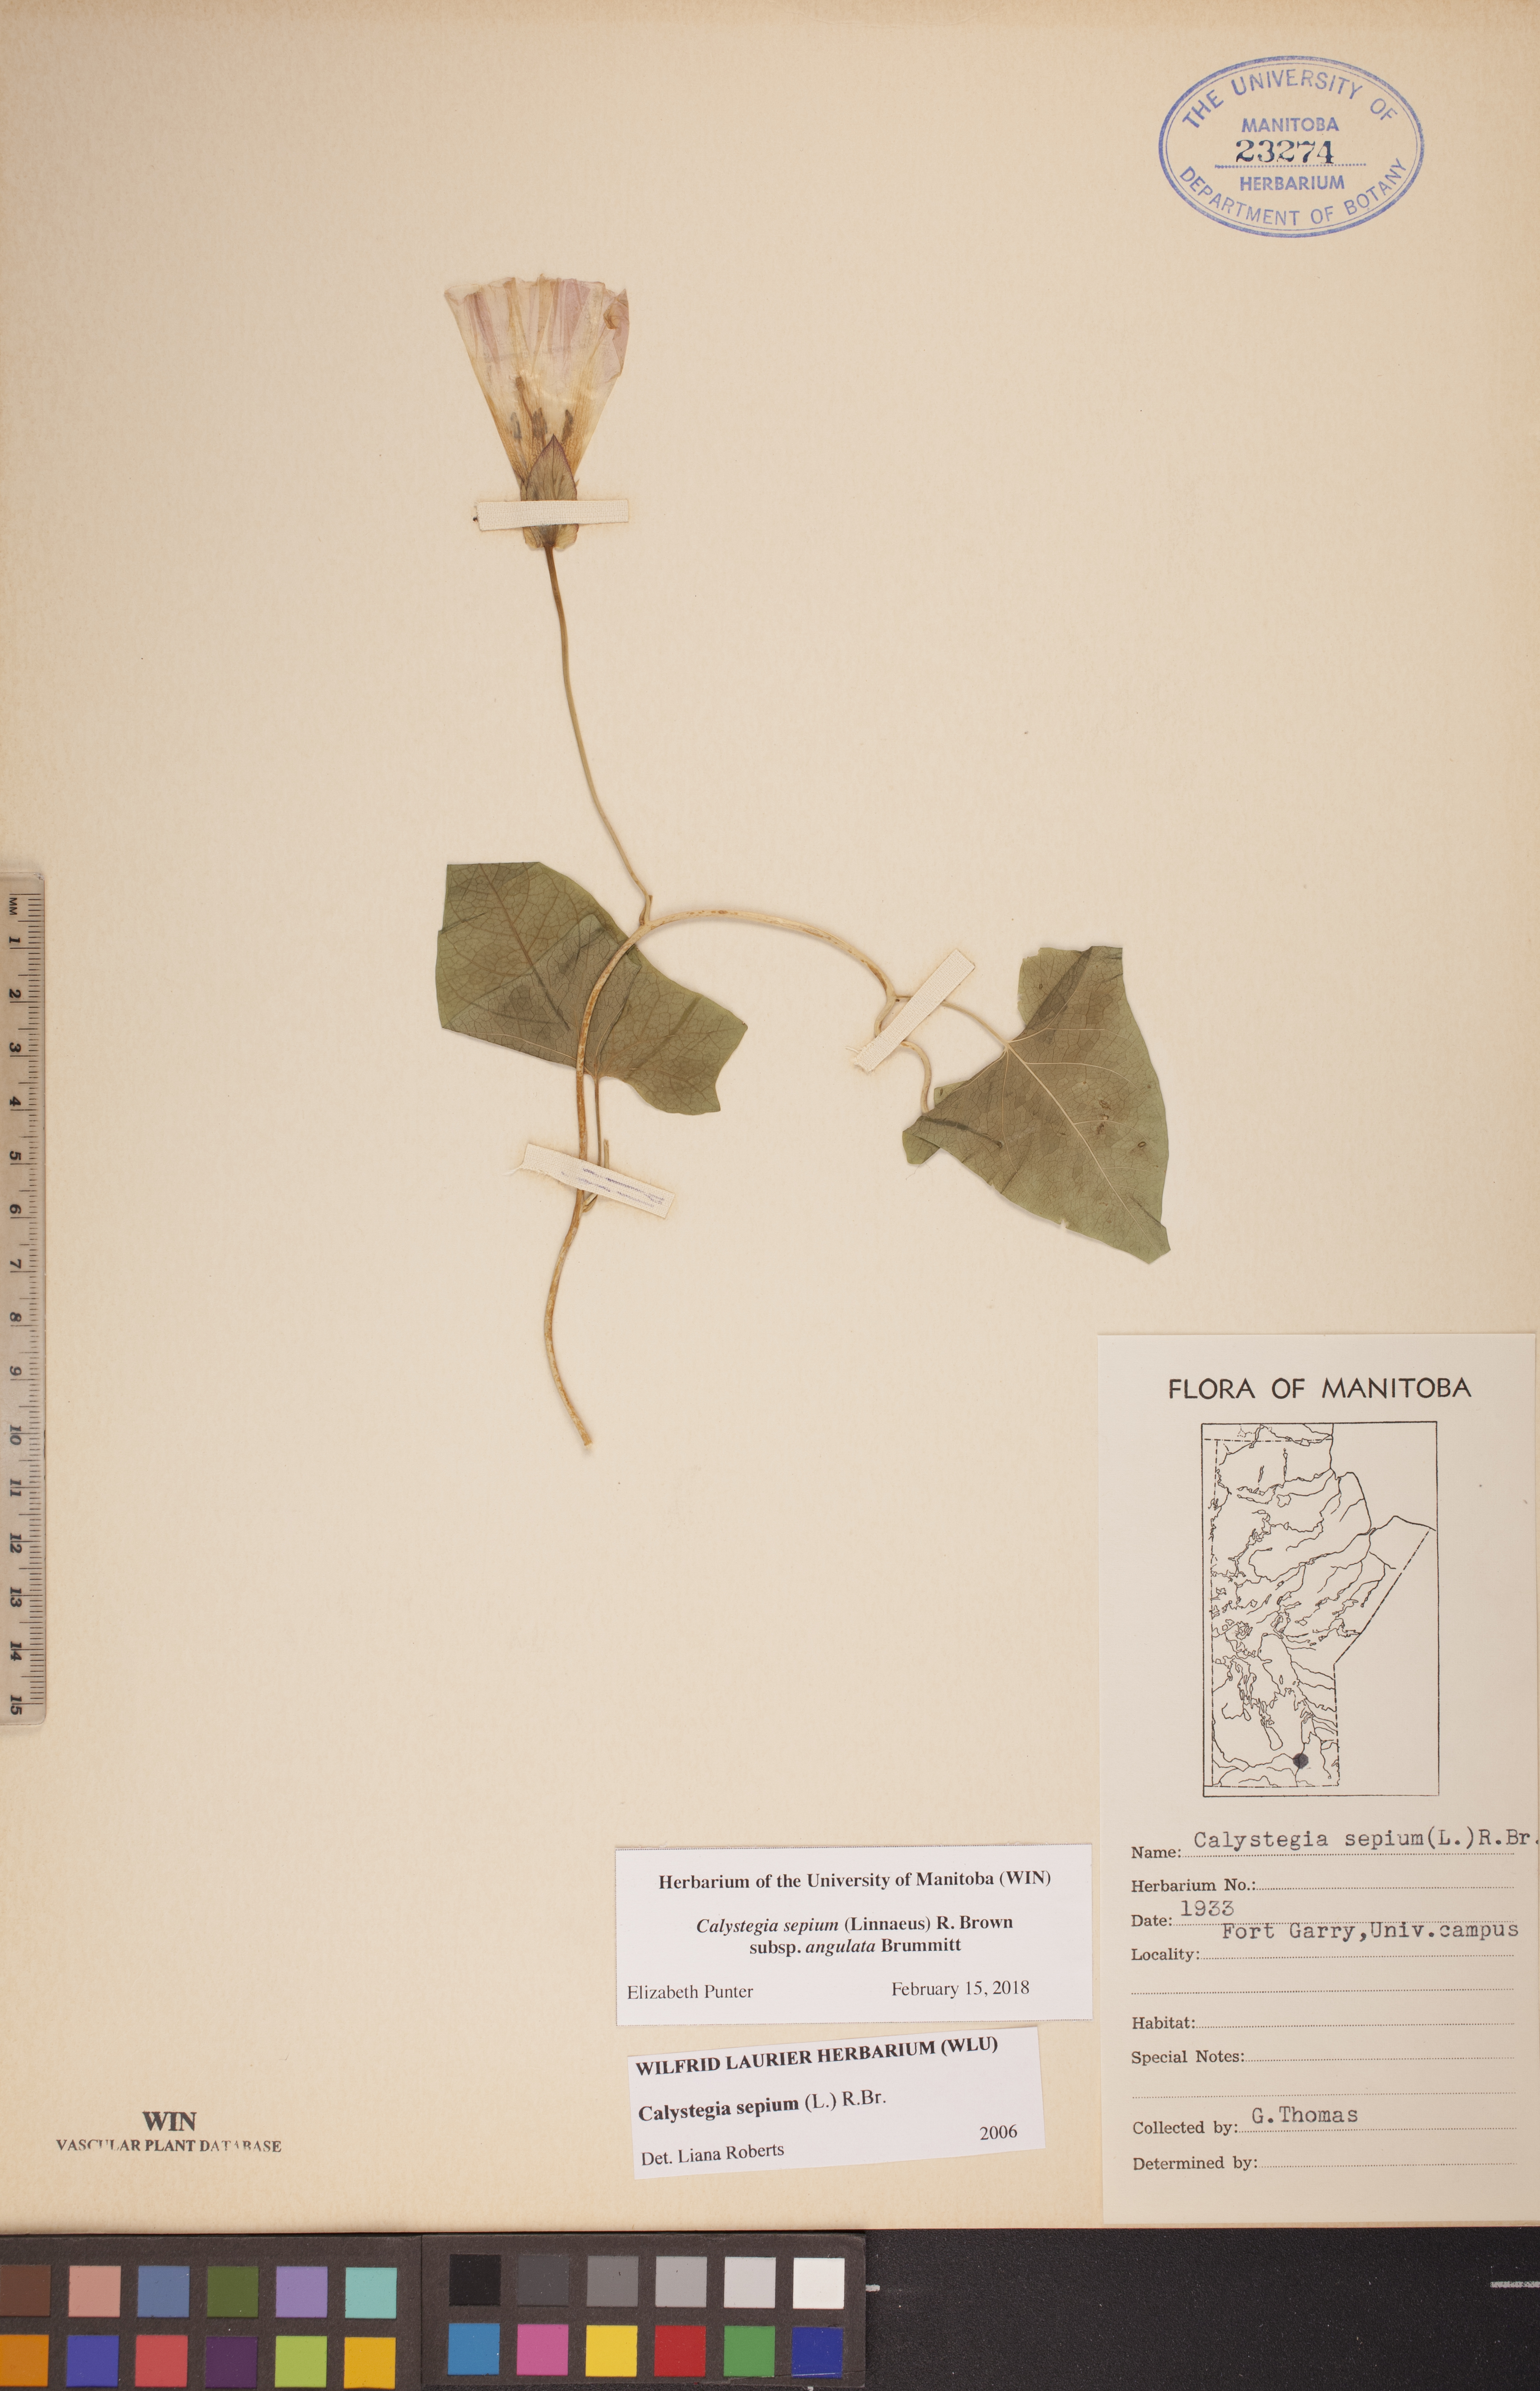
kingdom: Plantae
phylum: Tracheophyta
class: Magnoliopsida
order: Solanales
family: Convolvulaceae
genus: Calystegia
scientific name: Calystegia sepium
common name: Hedge bindweed
